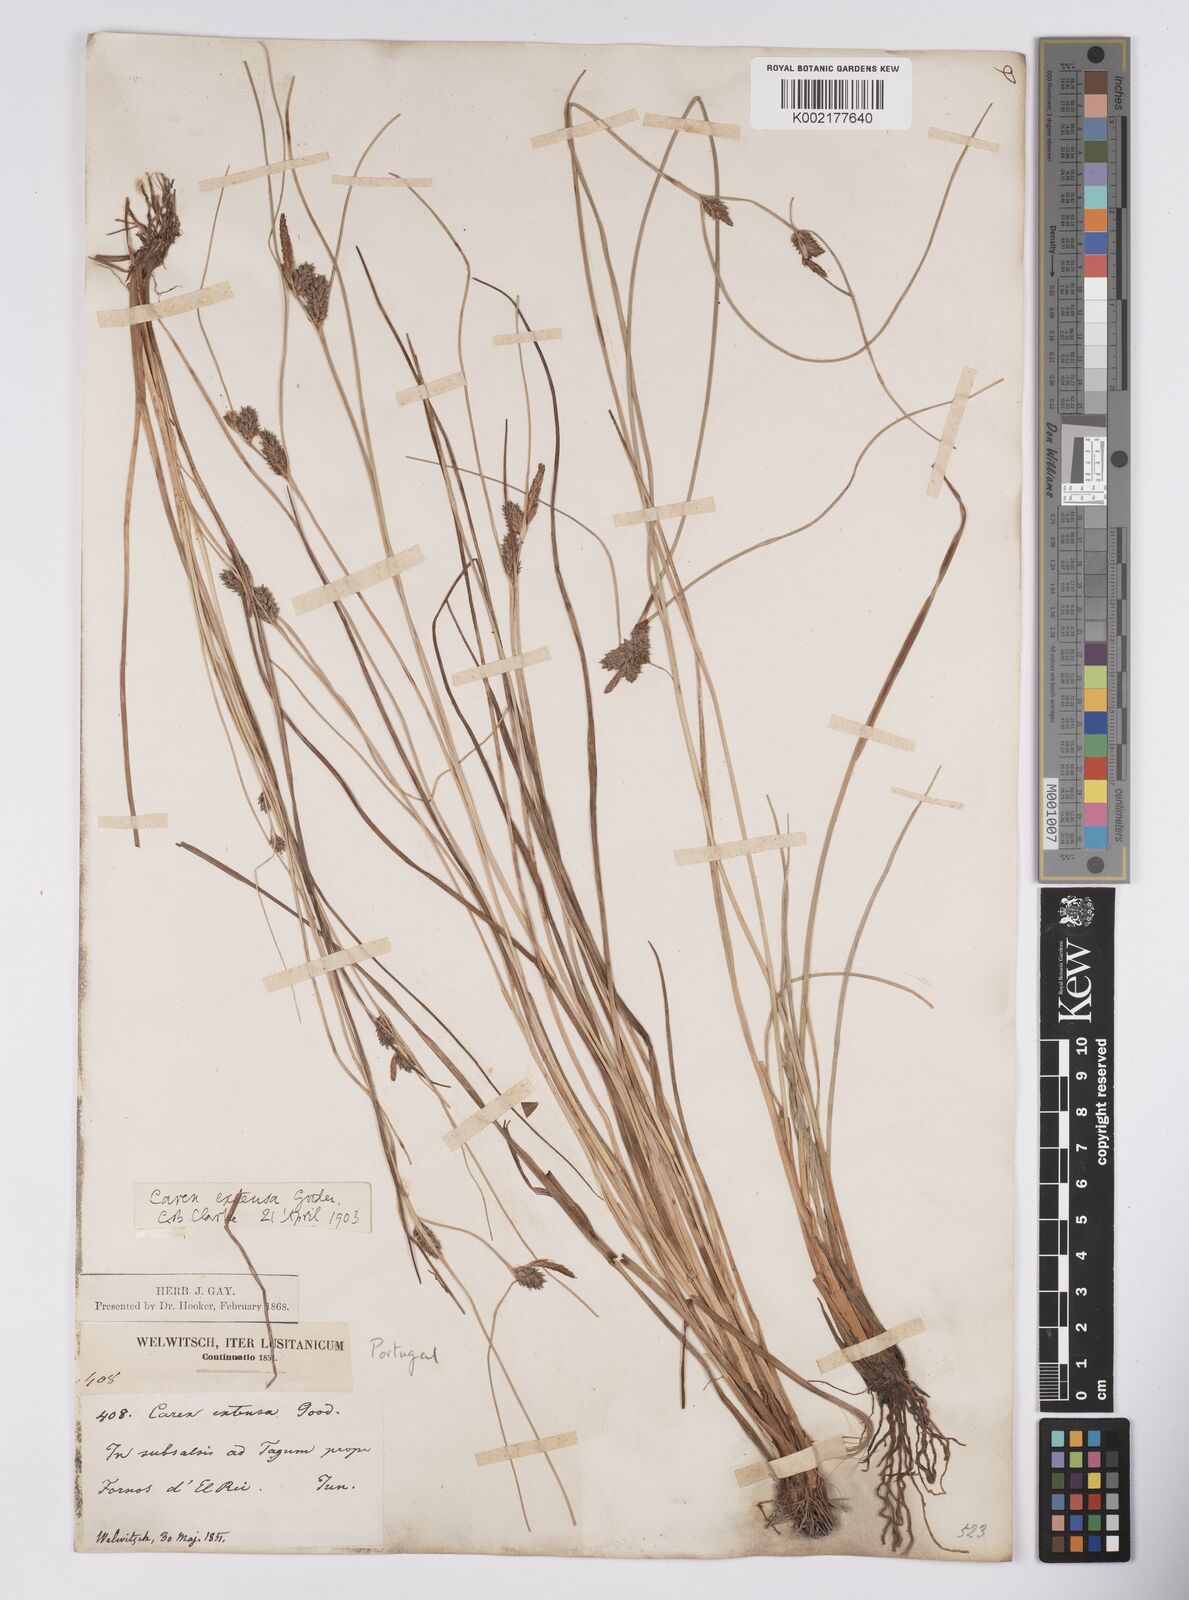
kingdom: Plantae
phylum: Tracheophyta
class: Liliopsida
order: Poales
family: Cyperaceae
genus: Carex
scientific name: Carex extensa
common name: Long-bracted sedge
